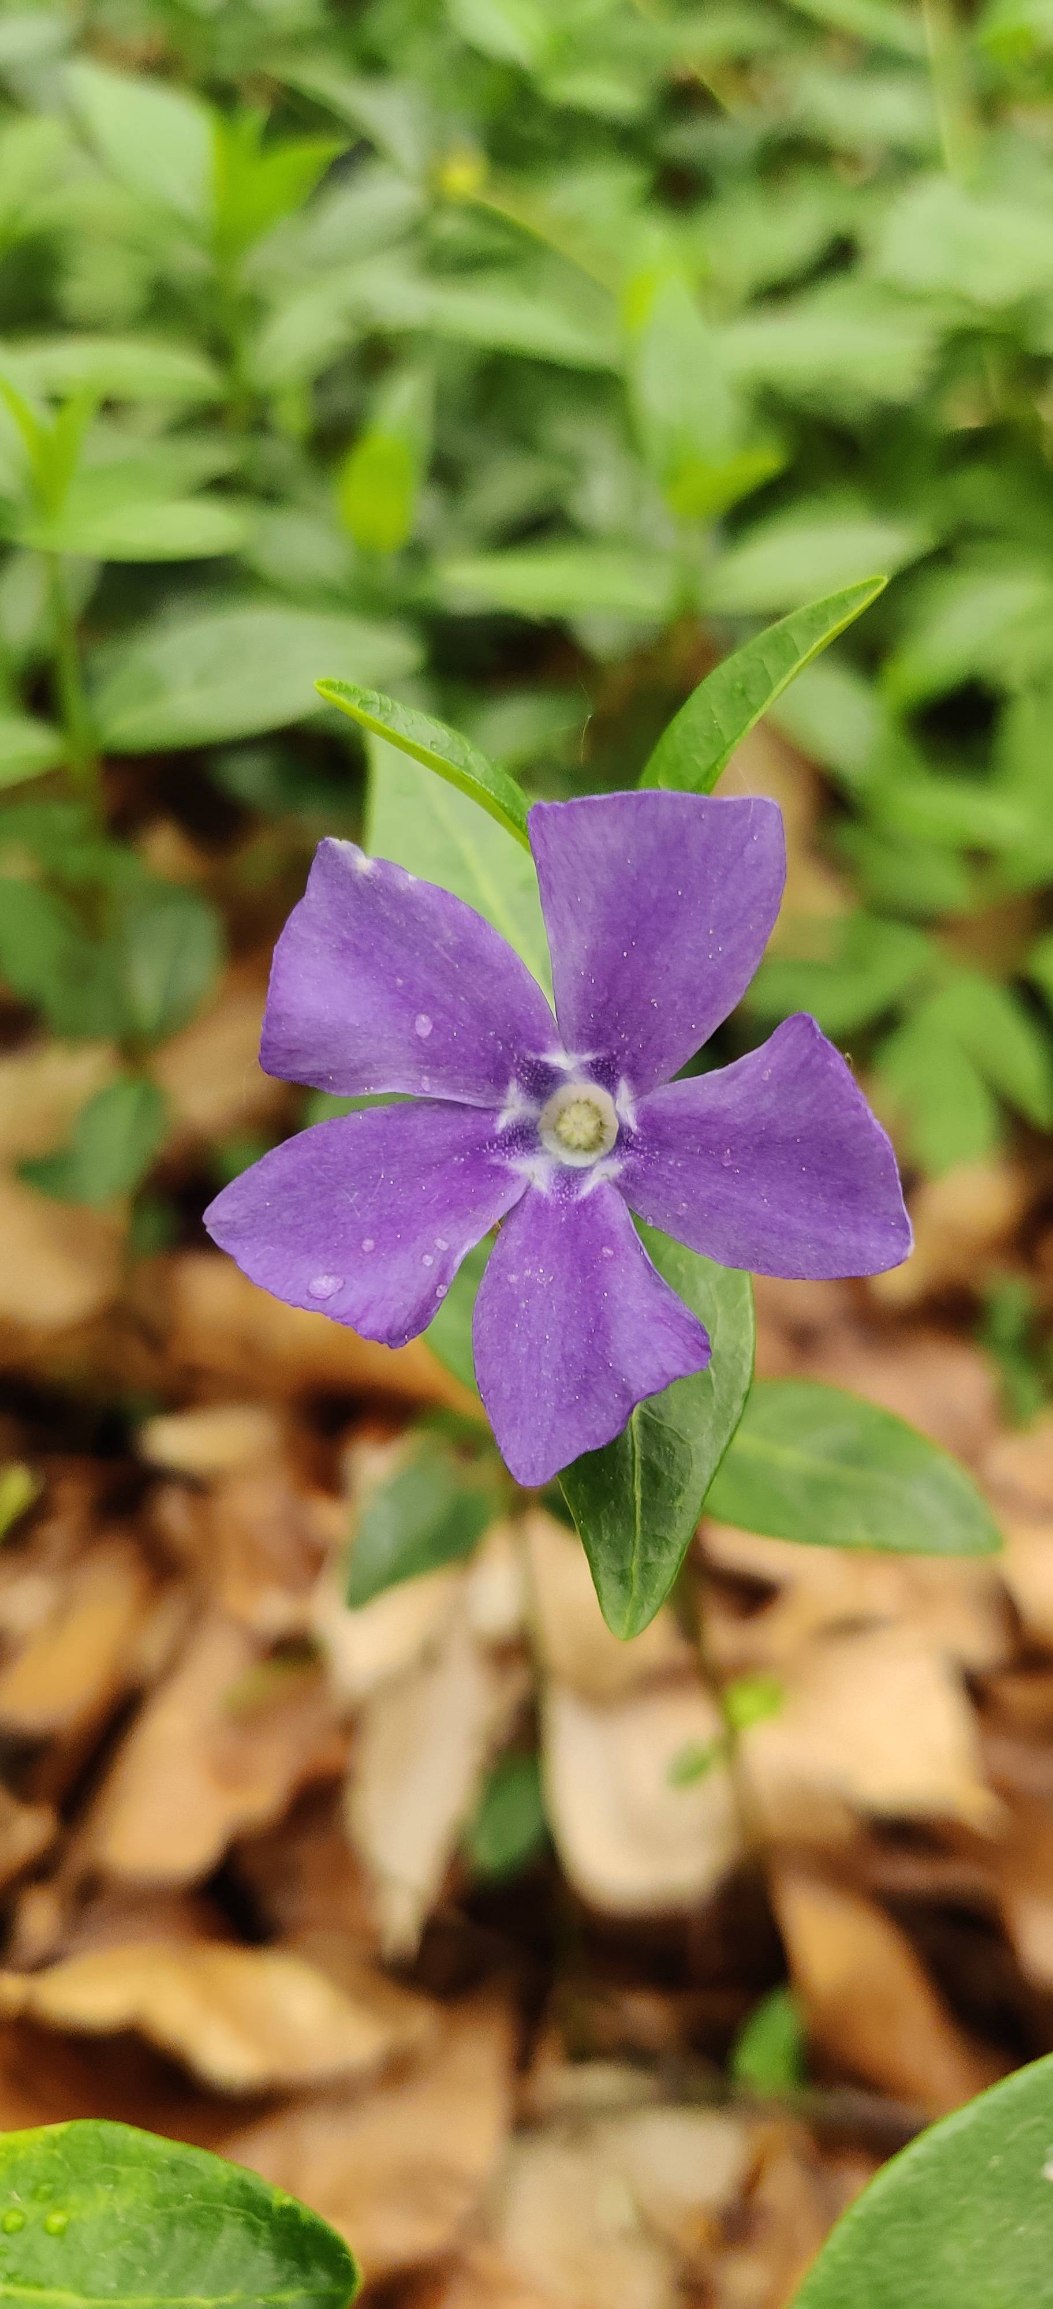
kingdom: Plantae
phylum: Tracheophyta
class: Magnoliopsida
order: Gentianales
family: Apocynaceae
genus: Vinca
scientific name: Vinca minor
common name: Liden singrøn
